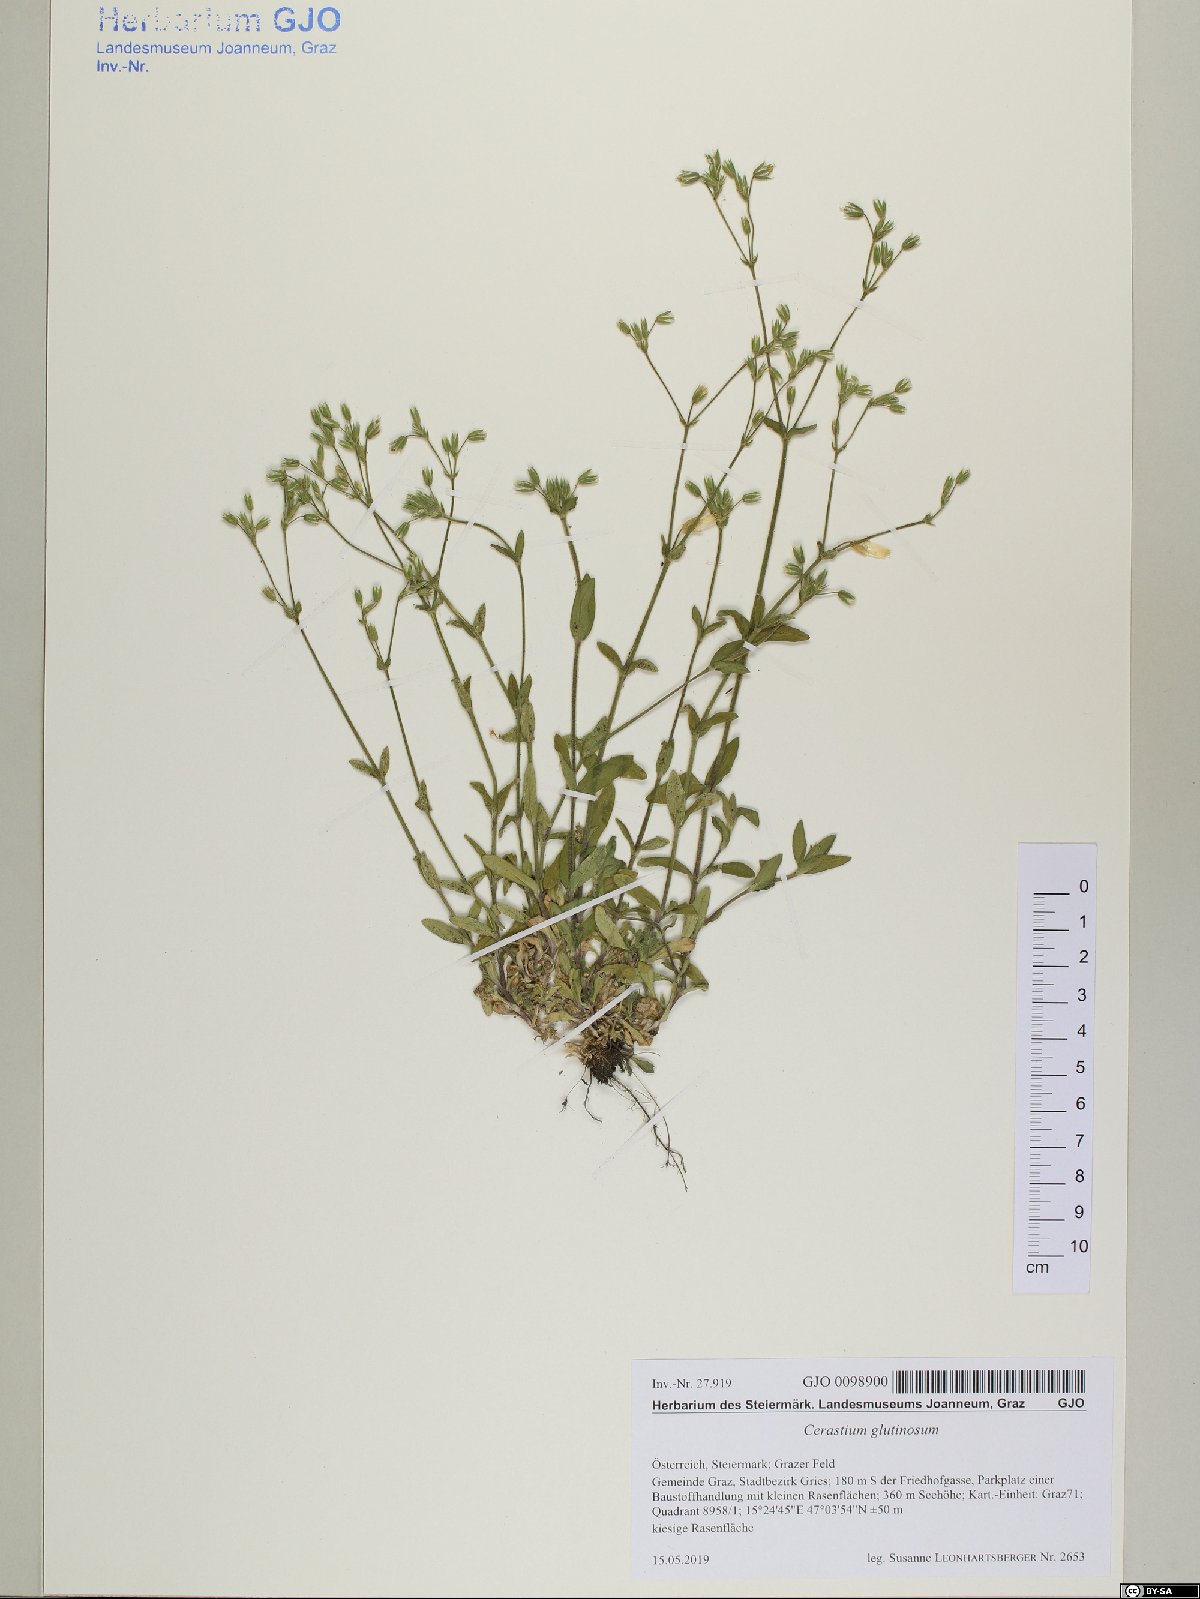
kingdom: Plantae
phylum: Tracheophyta
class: Magnoliopsida
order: Caryophyllales
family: Caryophyllaceae
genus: Cerastium
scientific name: Cerastium glutinosum
